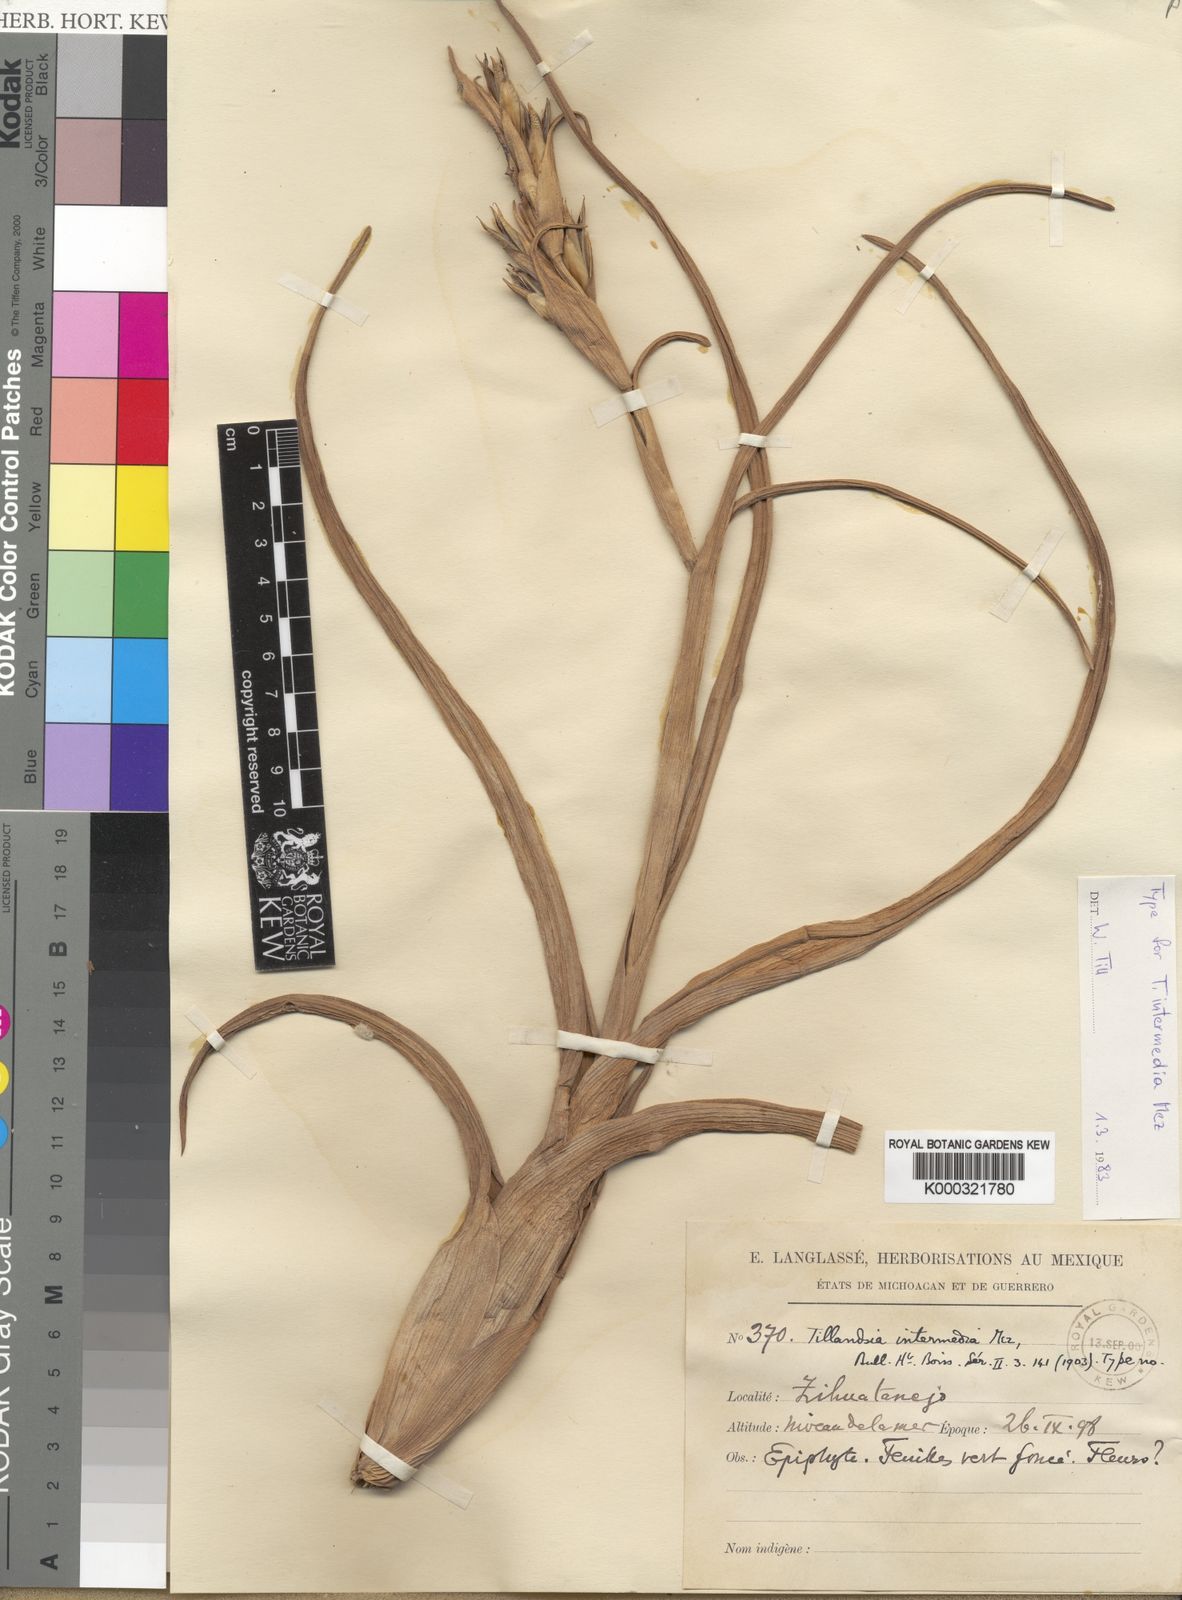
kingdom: Plantae
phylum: Tracheophyta
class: Liliopsida
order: Poales
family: Bromeliaceae
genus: Tillandsia
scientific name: Tillandsia streptophylla
